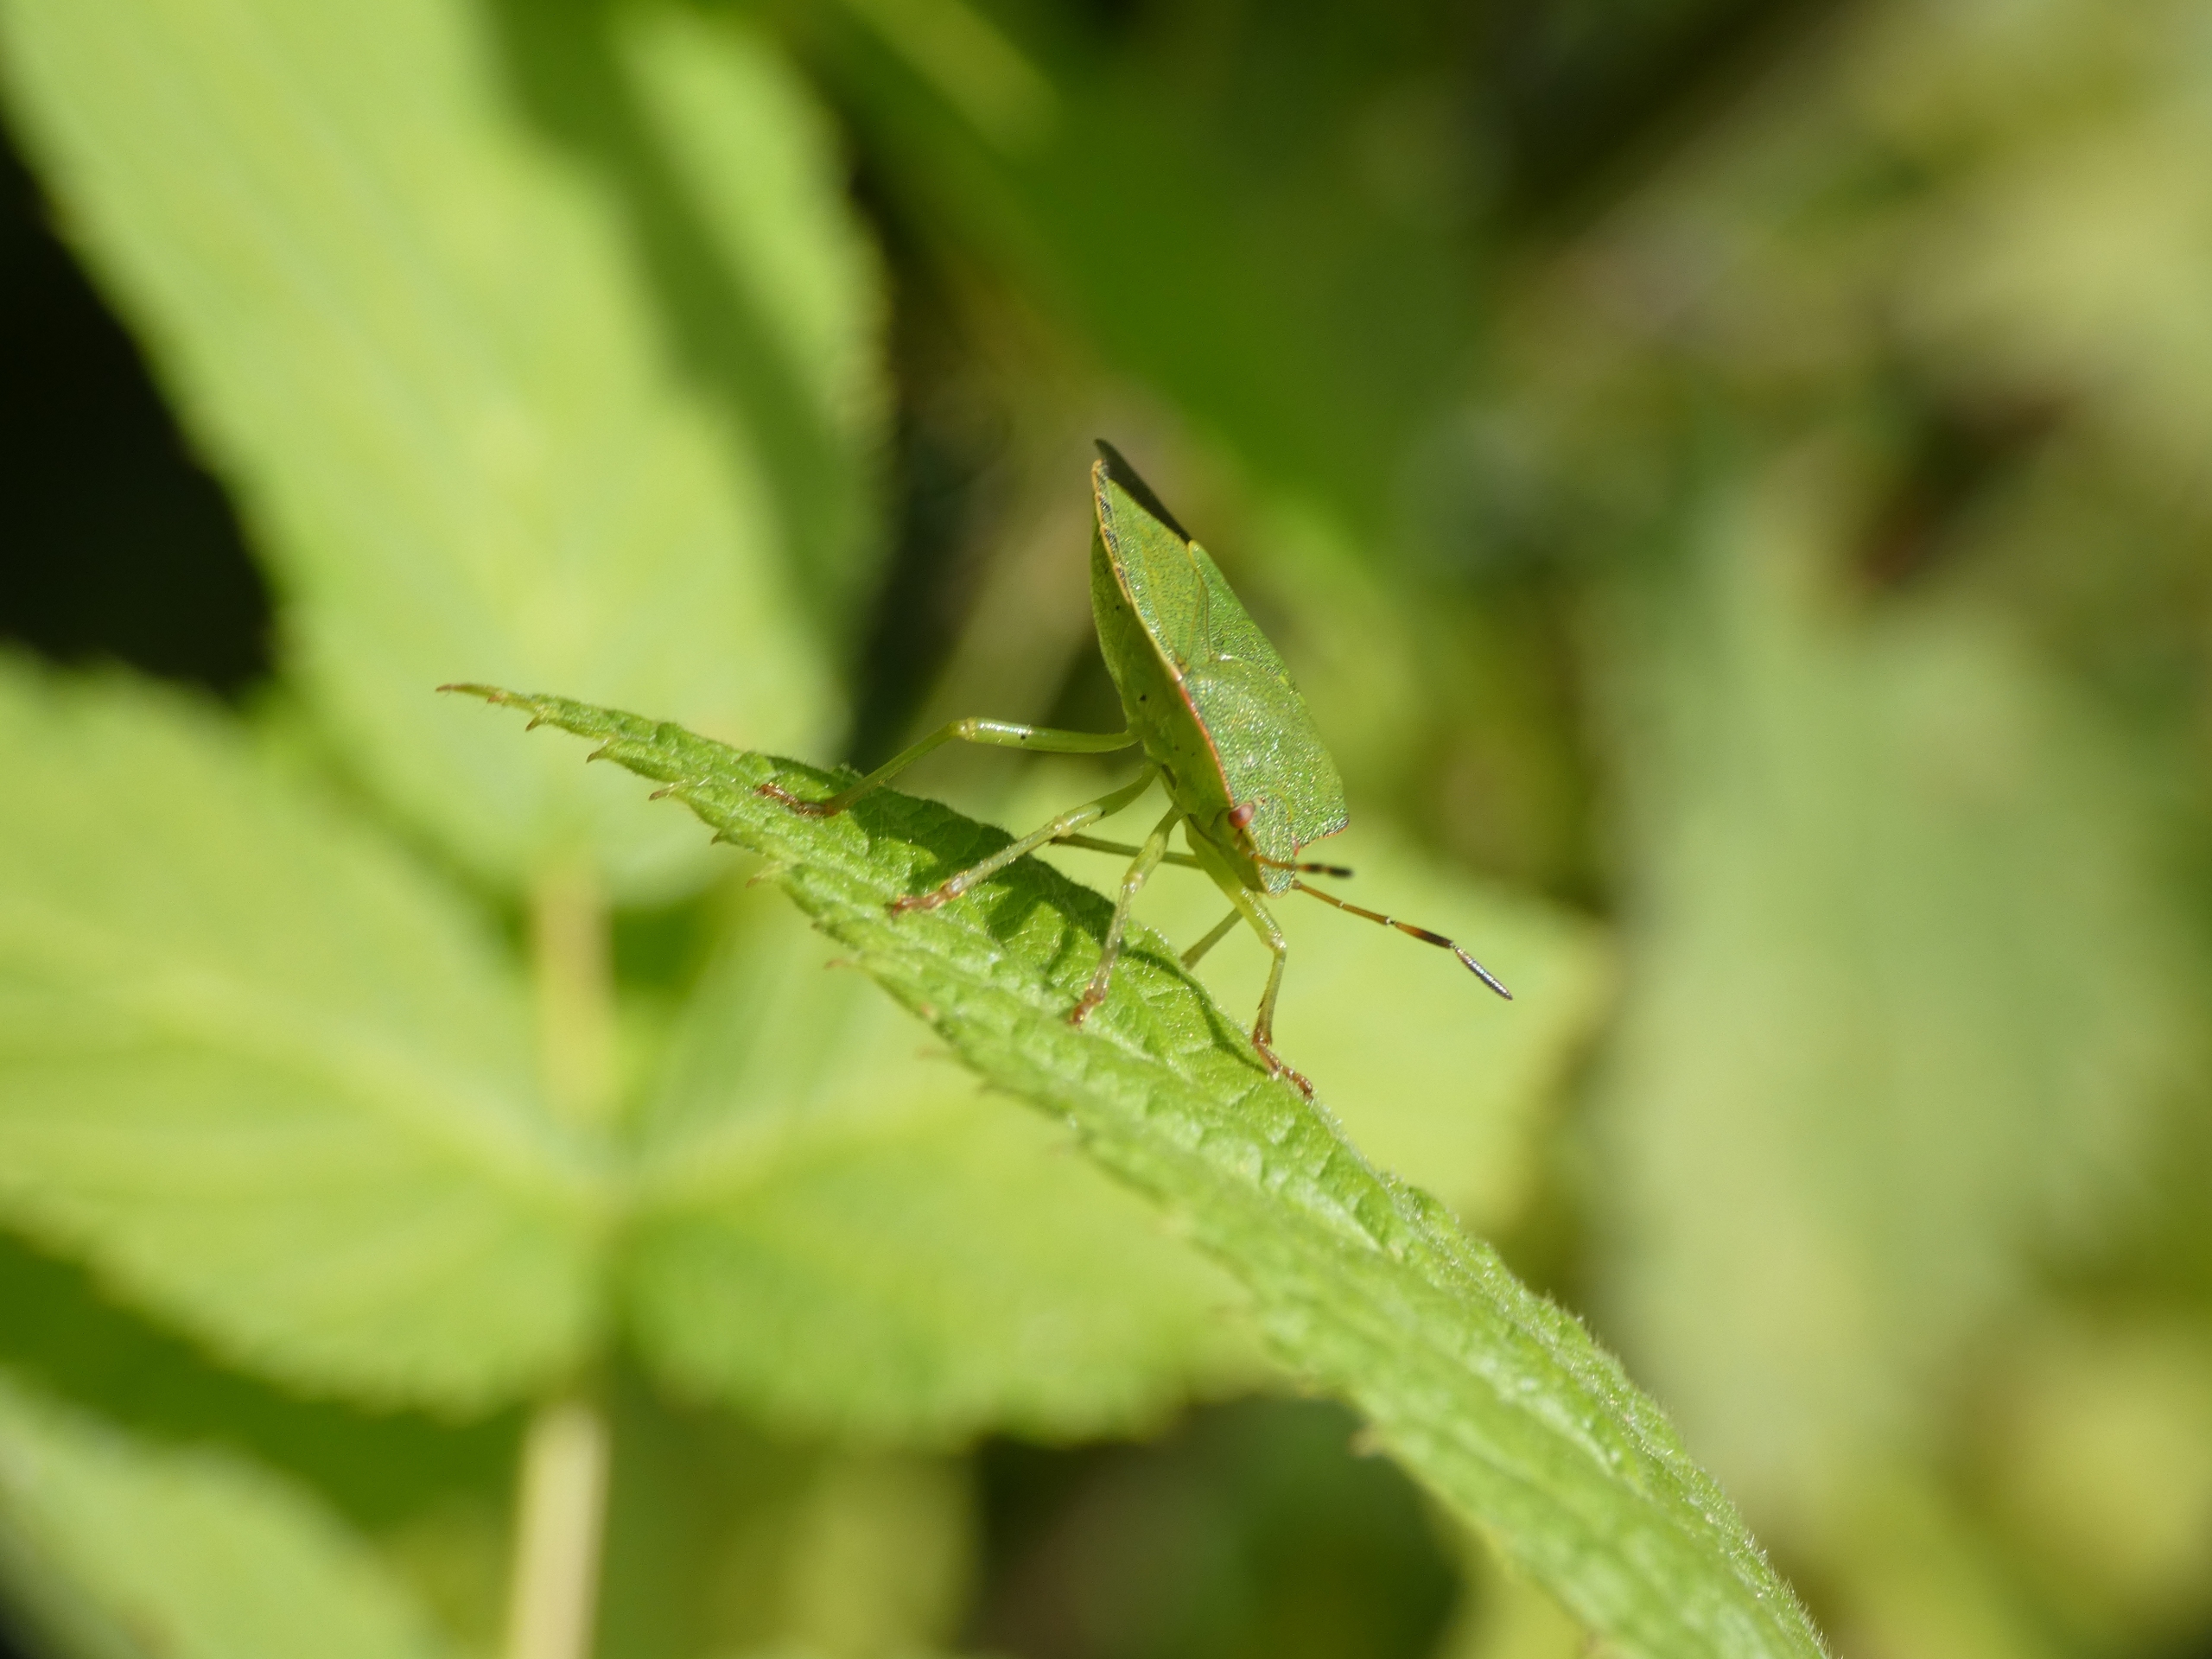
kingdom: Animalia
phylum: Arthropoda
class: Insecta
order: Hemiptera
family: Pentatomidae
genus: Palomena
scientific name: Palomena prasina
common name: Grøn bredtæge
